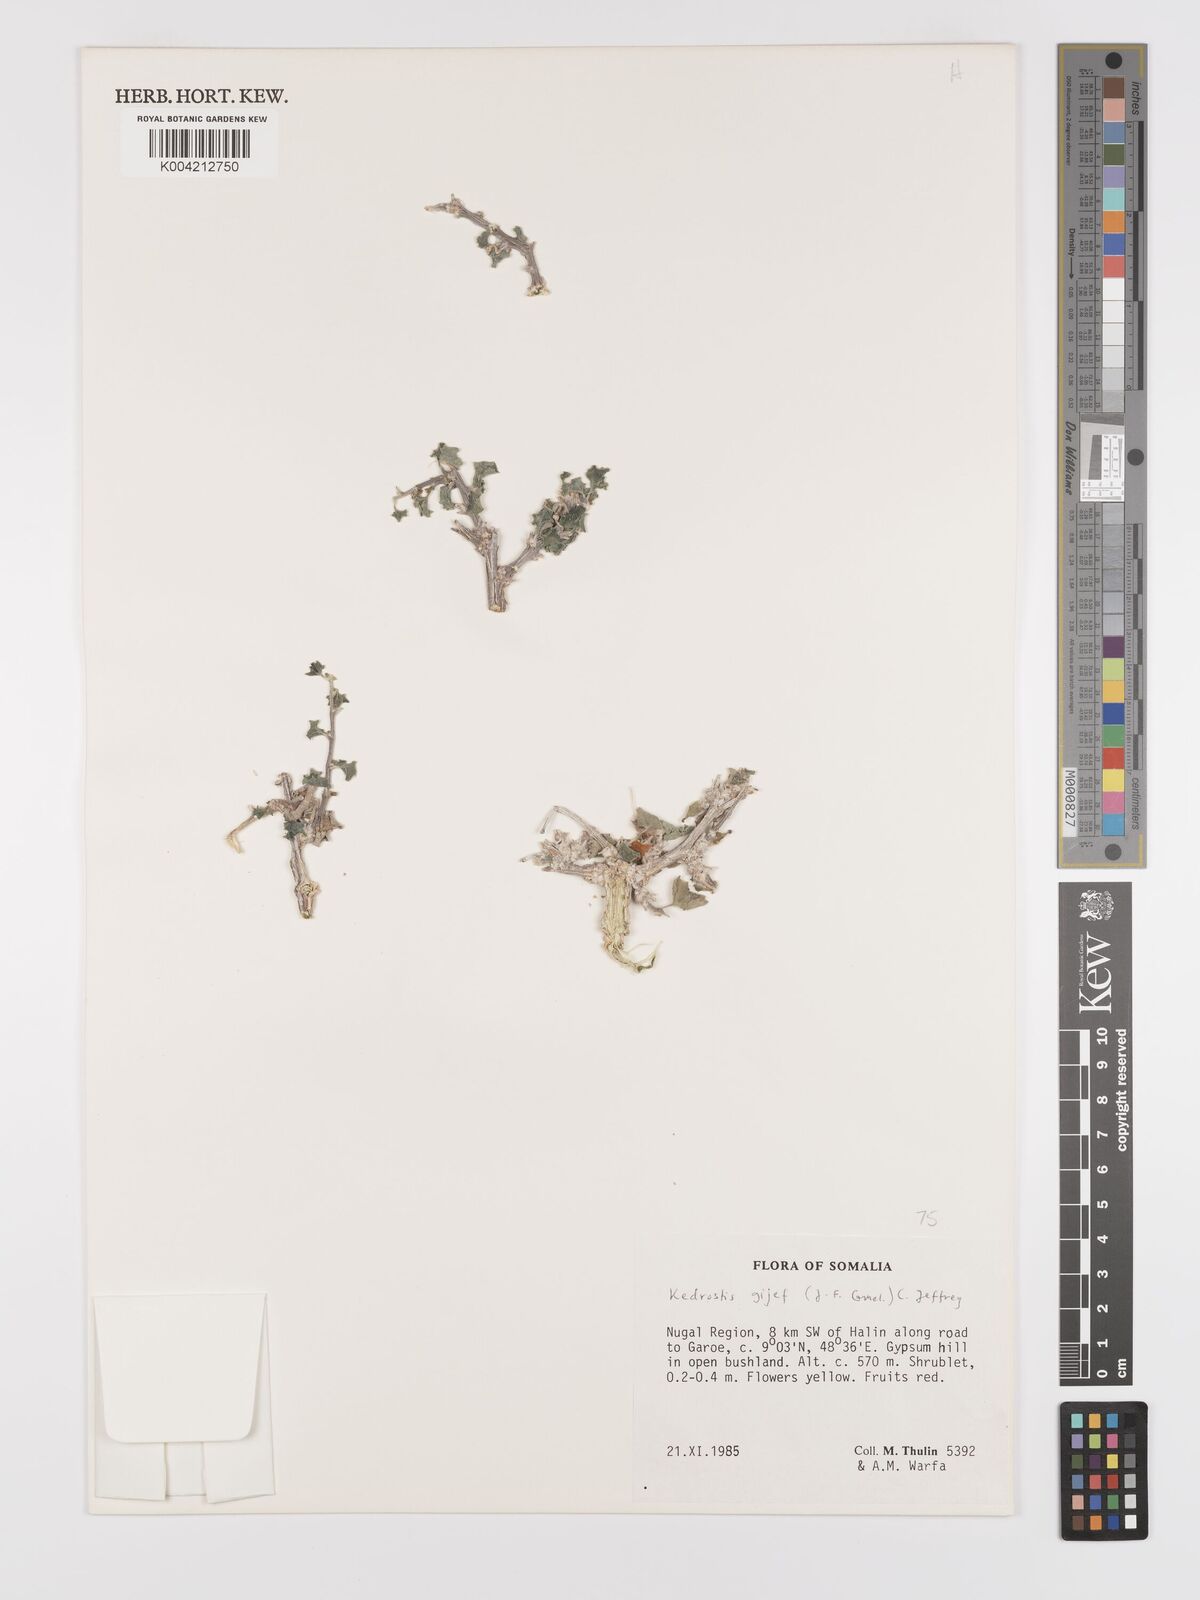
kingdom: Plantae
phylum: Tracheophyta
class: Magnoliopsida
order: Cucurbitales
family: Cucurbitaceae
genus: Corallocarpus
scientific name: Corallocarpus glomeruliflorus
